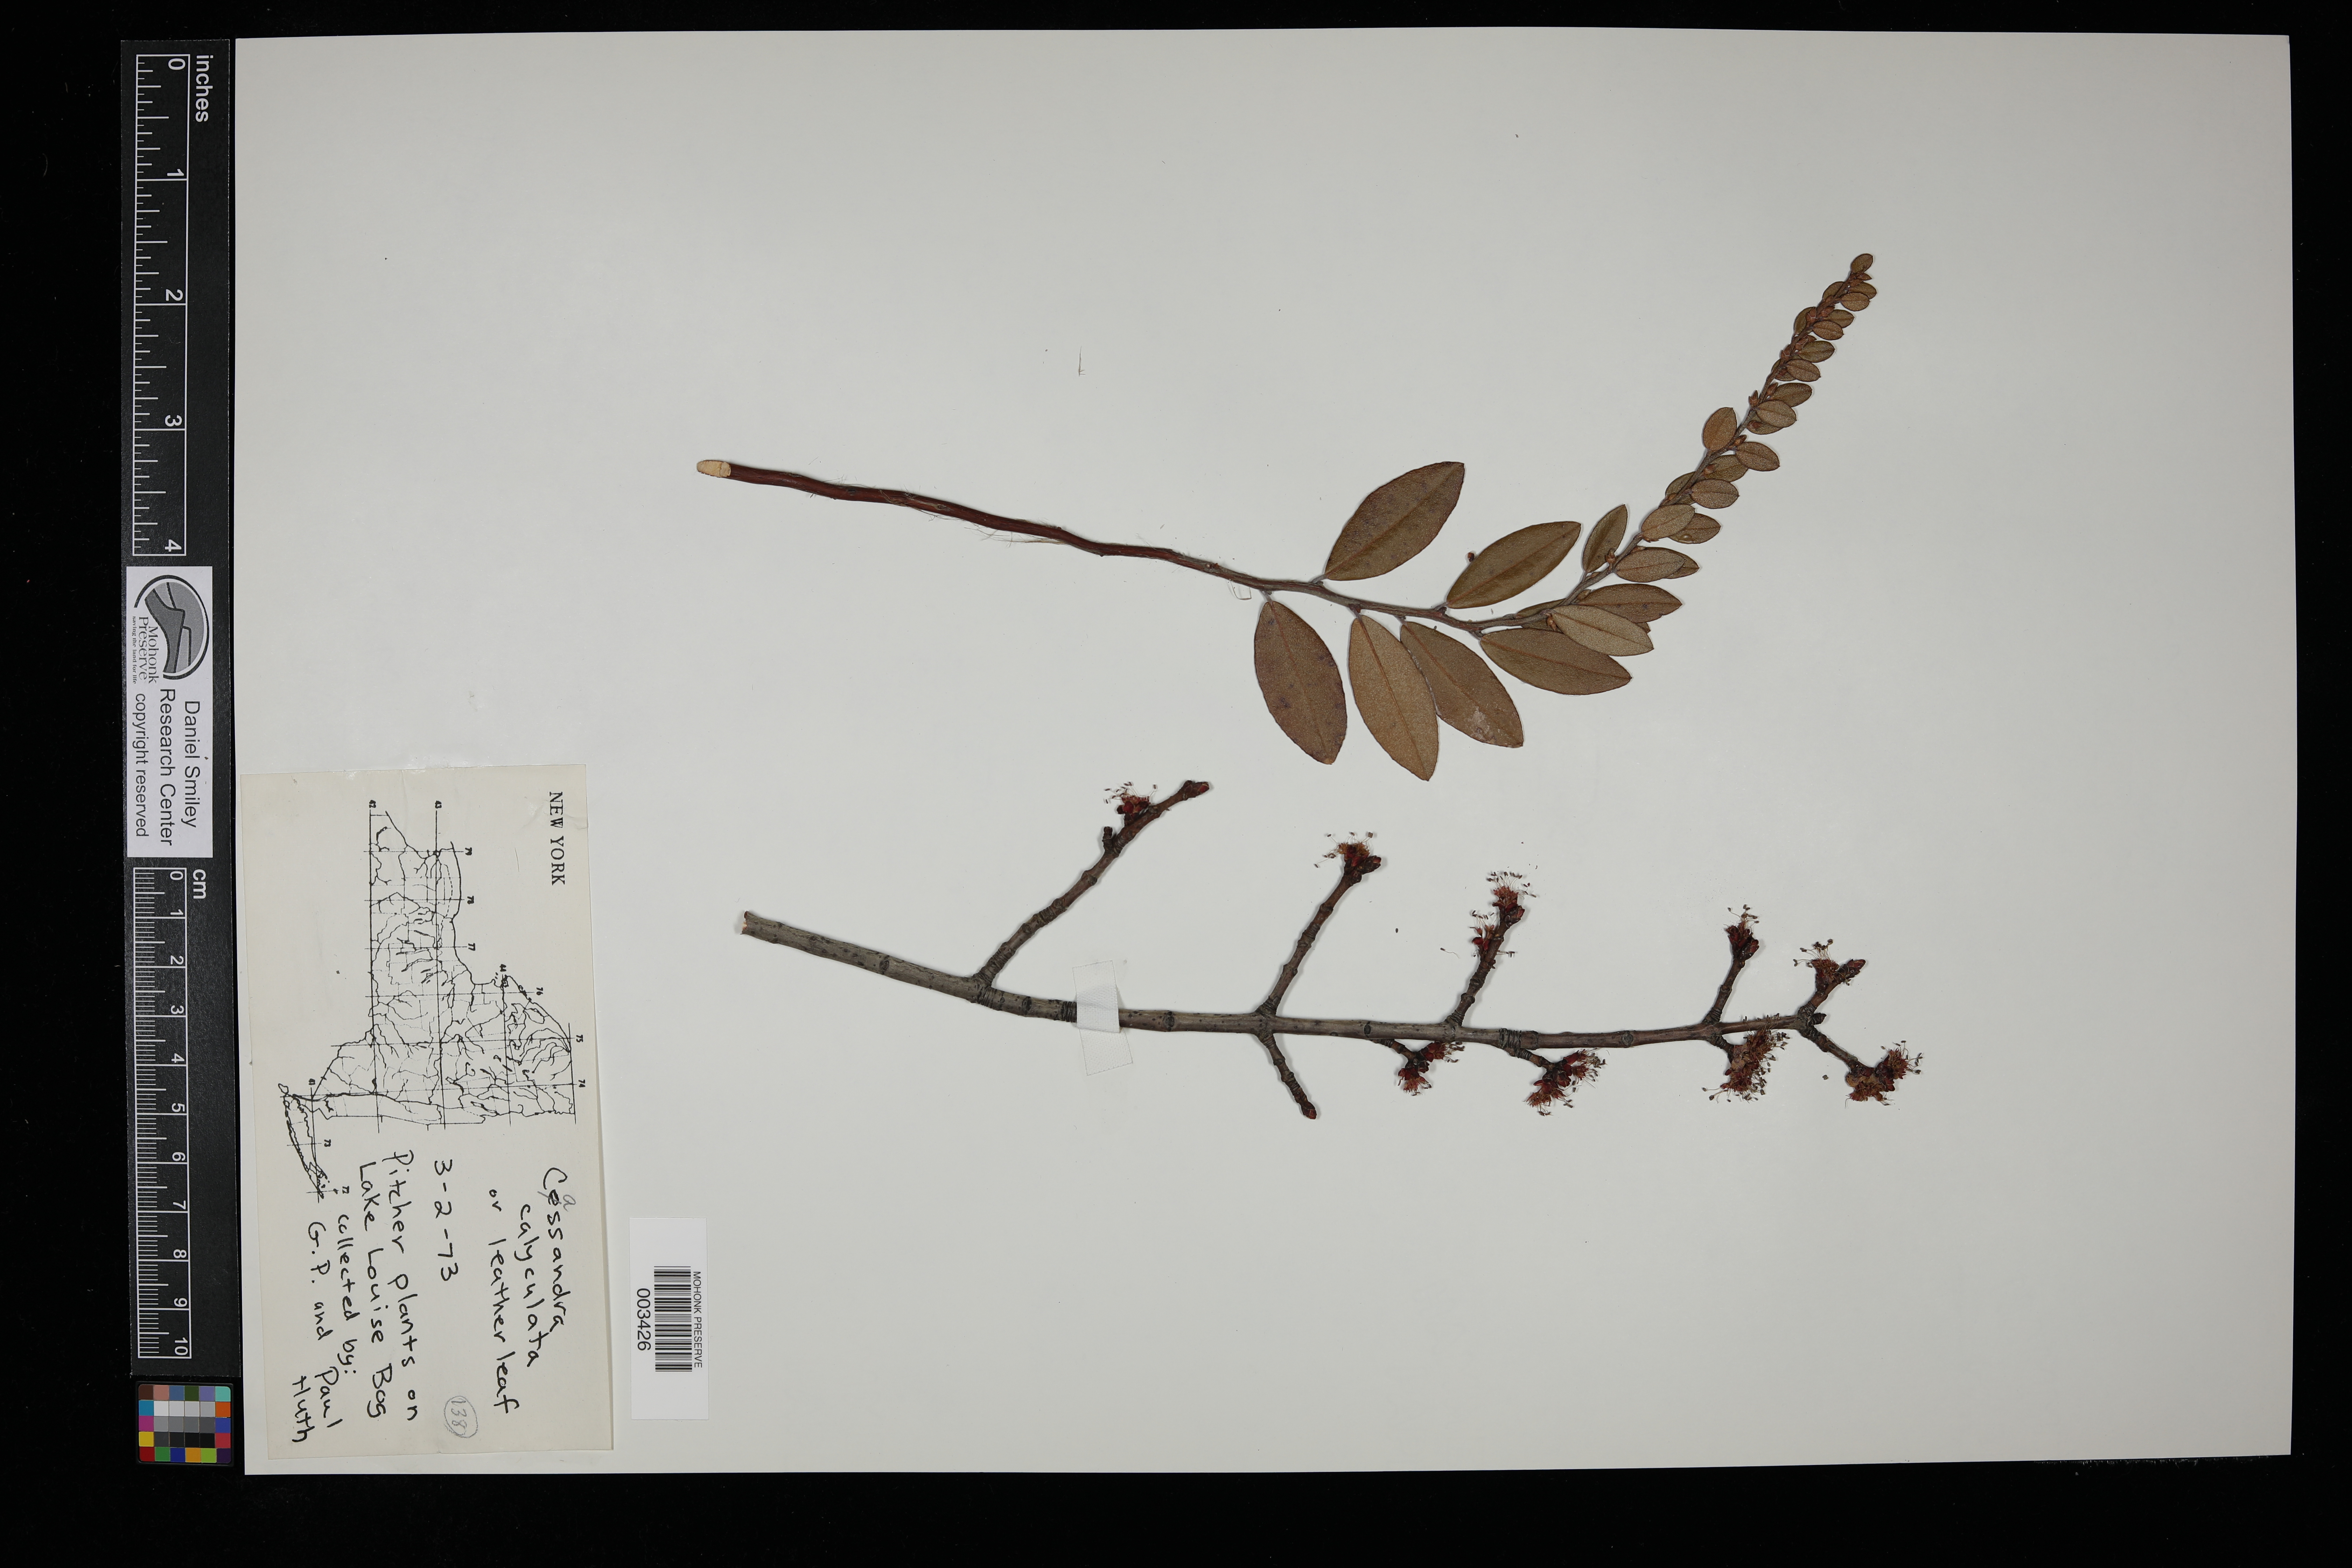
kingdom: Plantae
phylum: Tracheophyta
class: Magnoliopsida
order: Ericales
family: Ericaceae
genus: Chamaedaphne
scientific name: Chamaedaphne calyculata
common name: Leatherleaf
